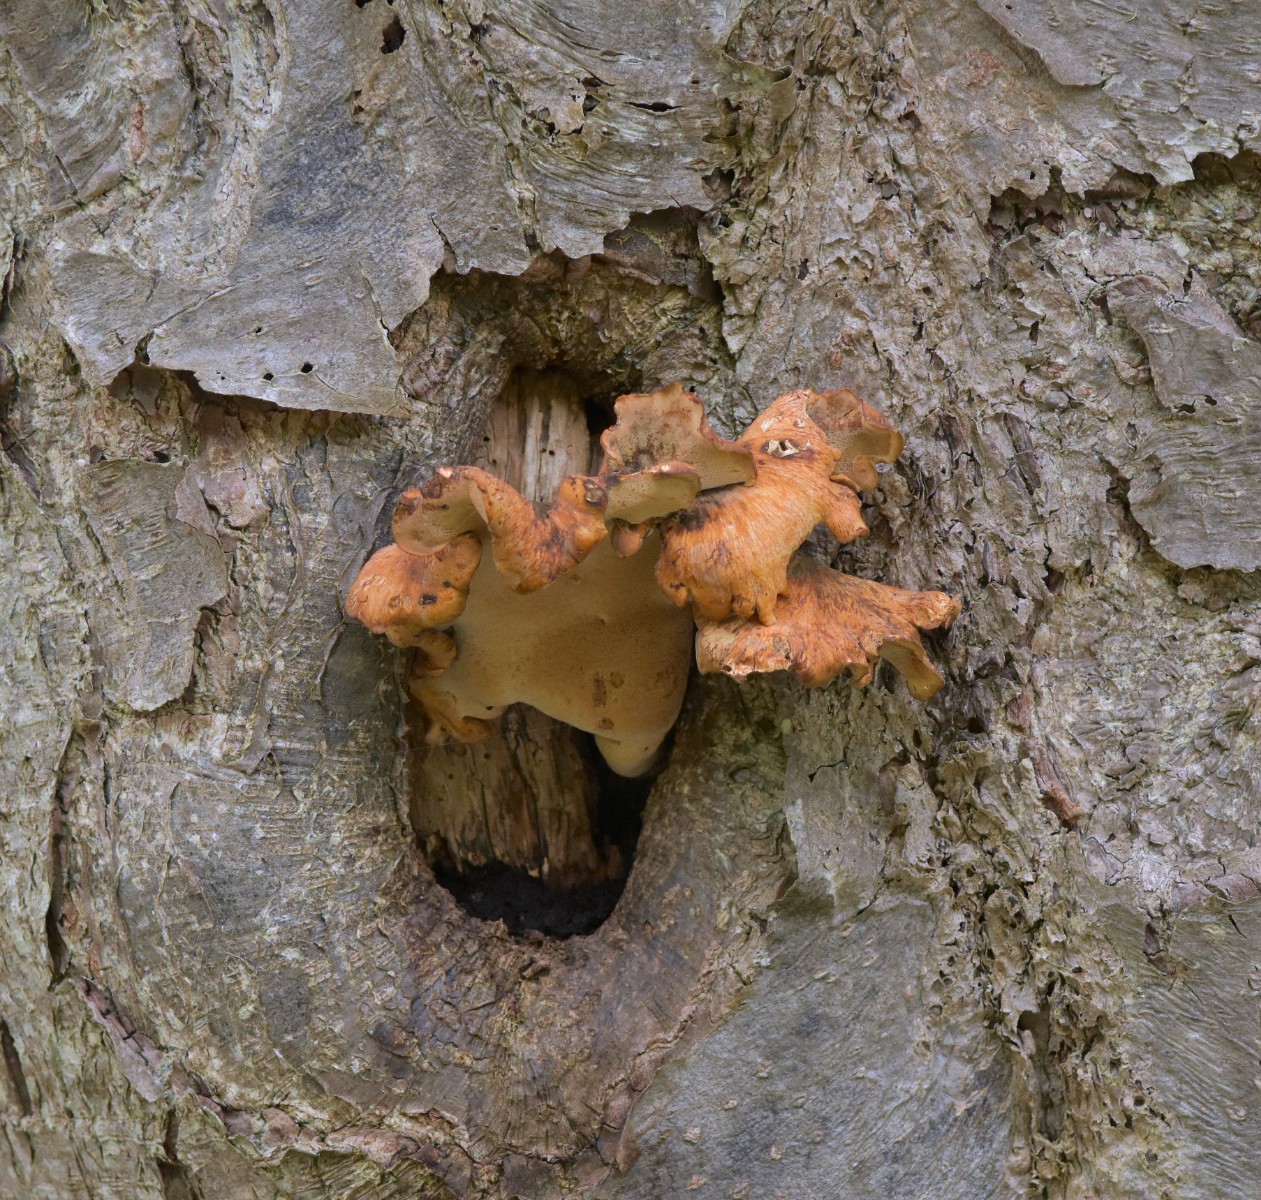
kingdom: Fungi
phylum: Basidiomycota
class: Agaricomycetes
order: Polyporales
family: Polyporaceae
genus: Cerioporus
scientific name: Cerioporus varius
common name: foranderlig stilkporesvamp
